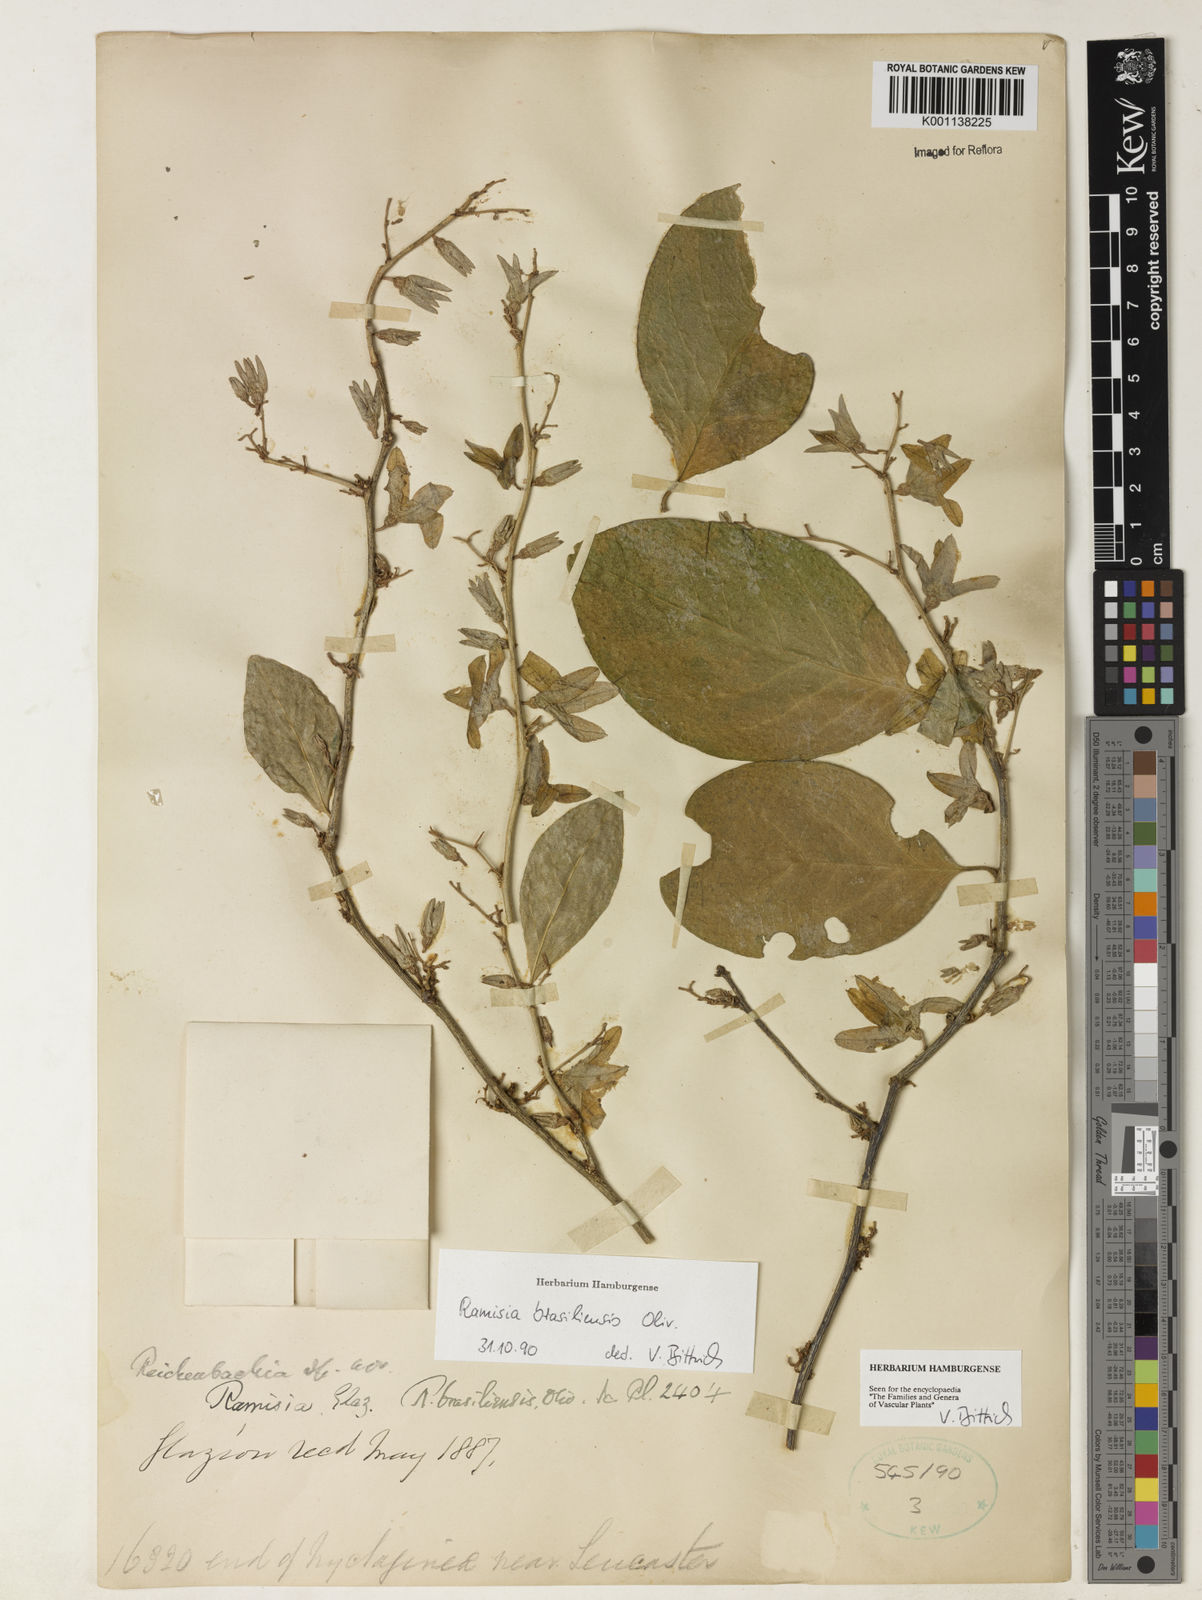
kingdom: Plantae
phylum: Tracheophyta
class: Magnoliopsida
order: Caryophyllales
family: Nyctaginaceae
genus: Ramisia
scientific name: Ramisia brasiliensis
